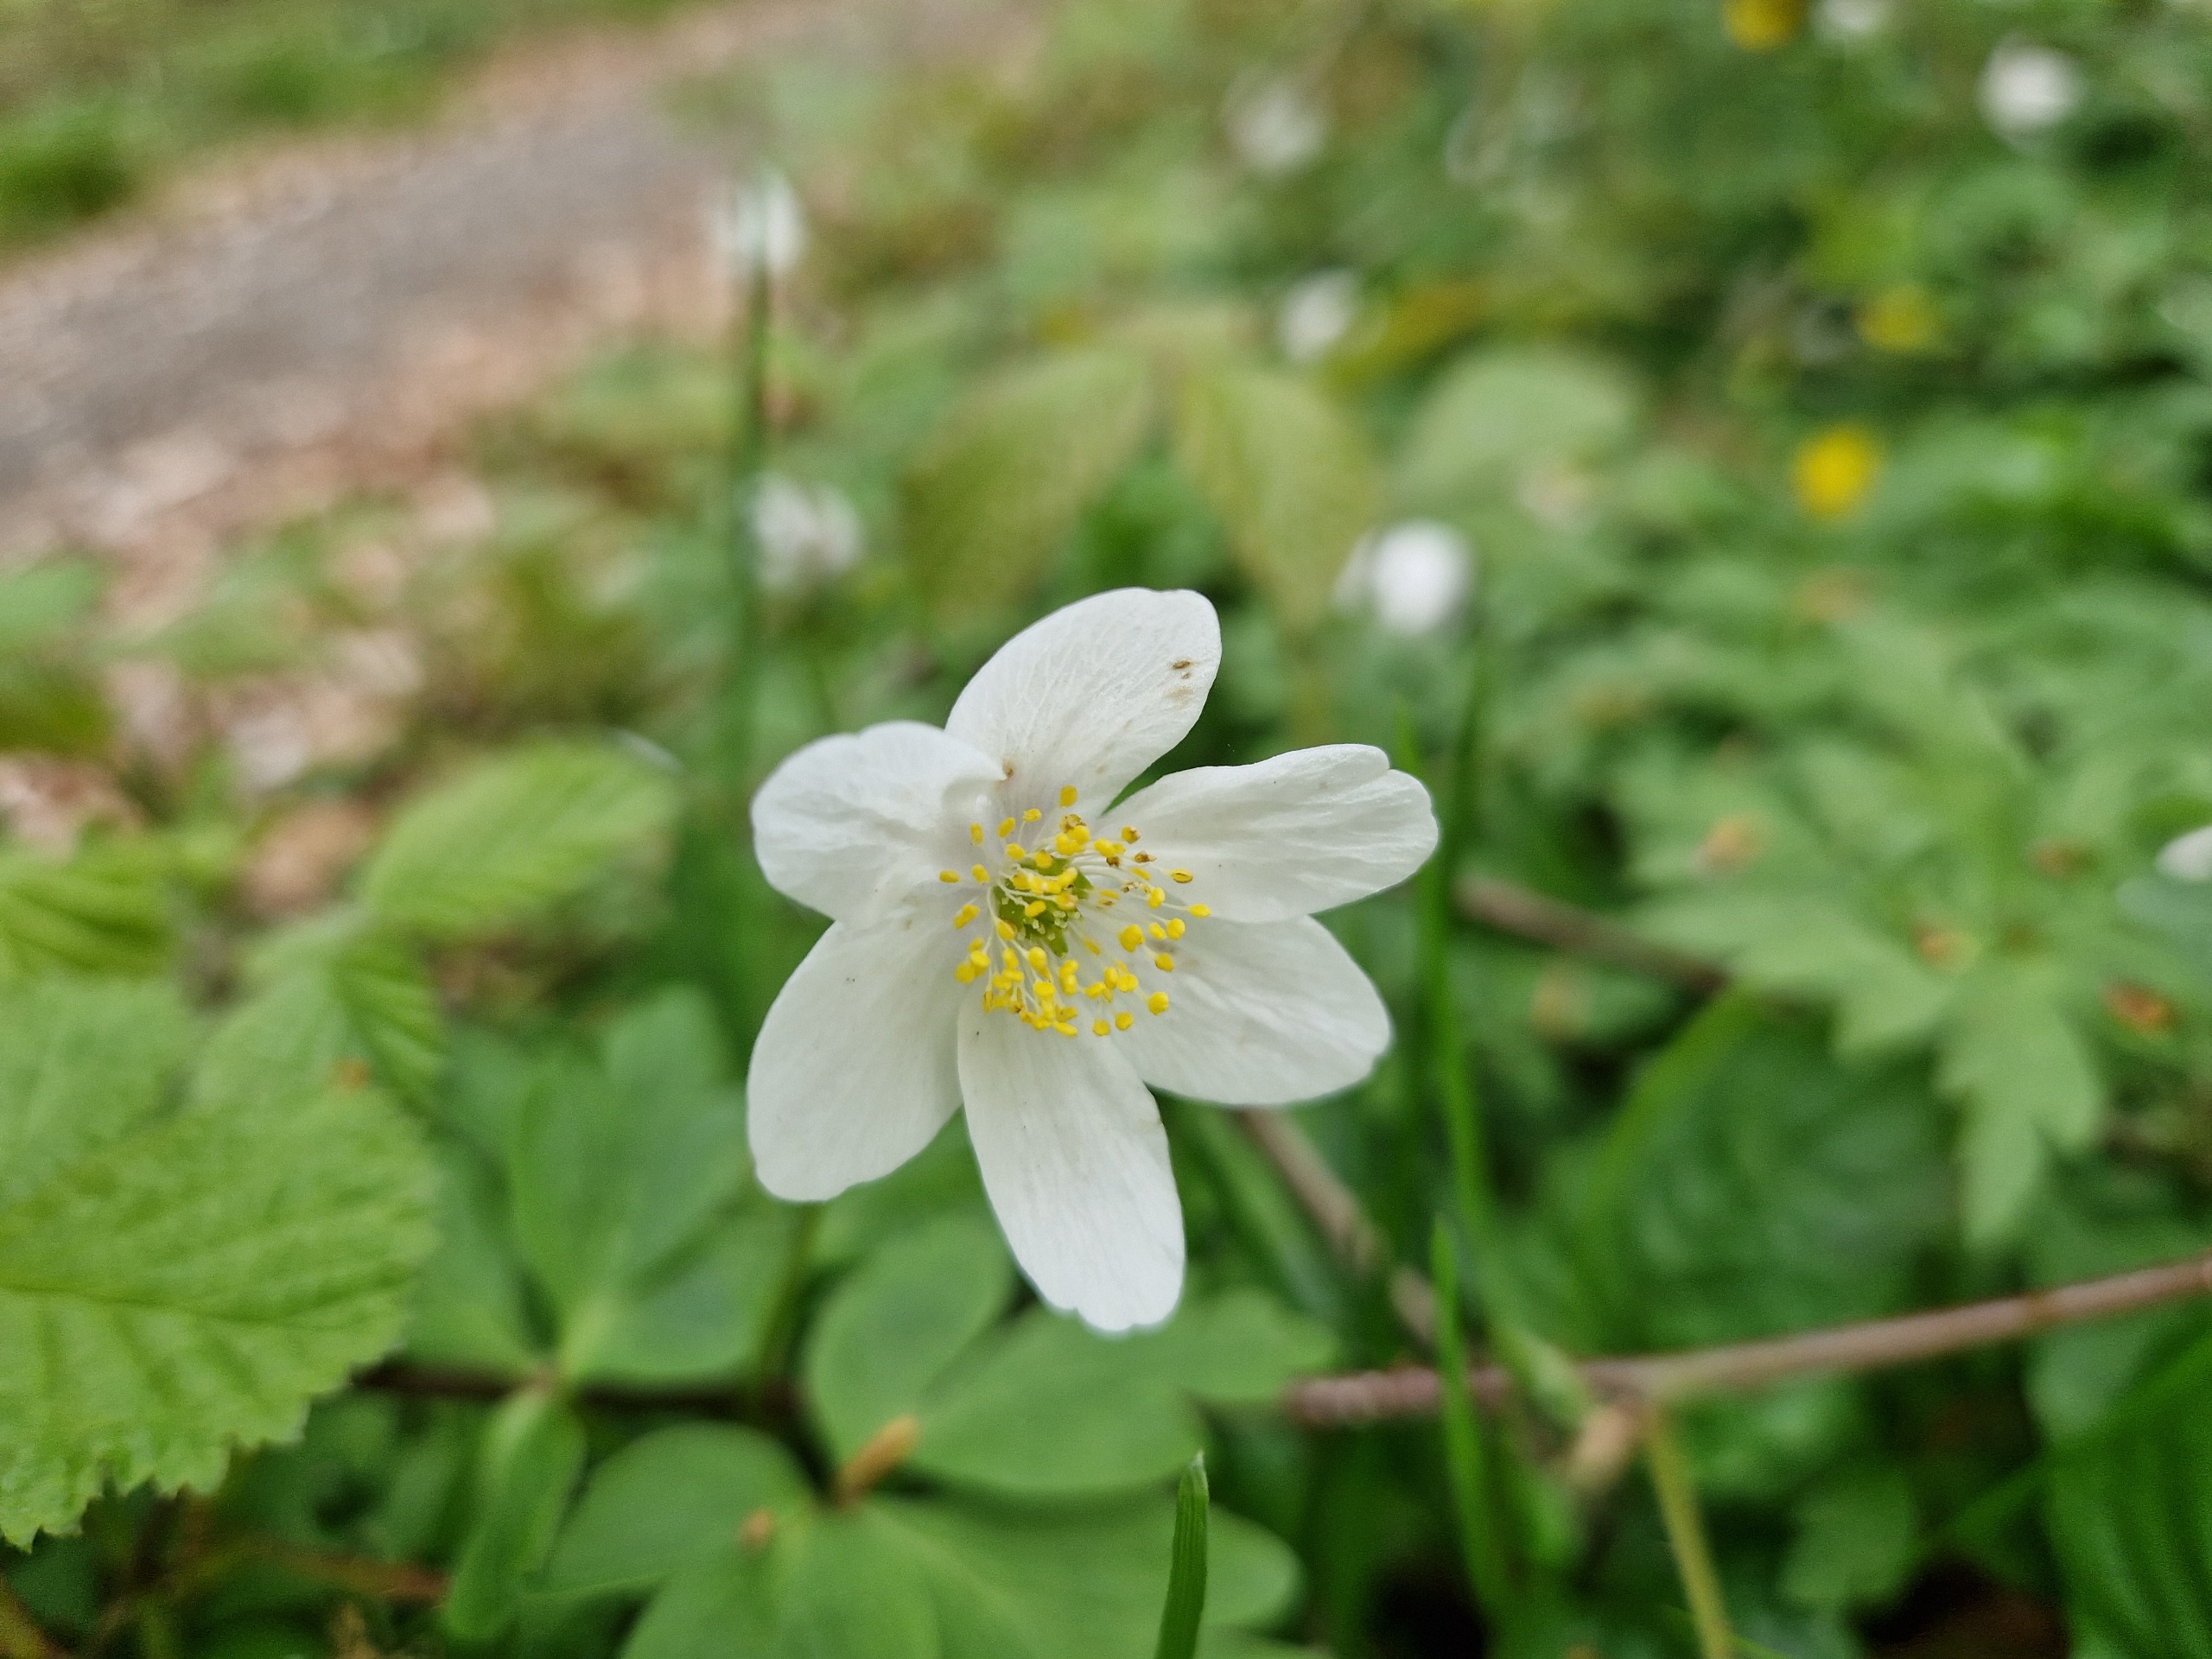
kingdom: Plantae
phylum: Tracheophyta
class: Magnoliopsida
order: Ranunculales
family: Ranunculaceae
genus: Anemone
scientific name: Anemone nemorosa
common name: Hvid anemone
